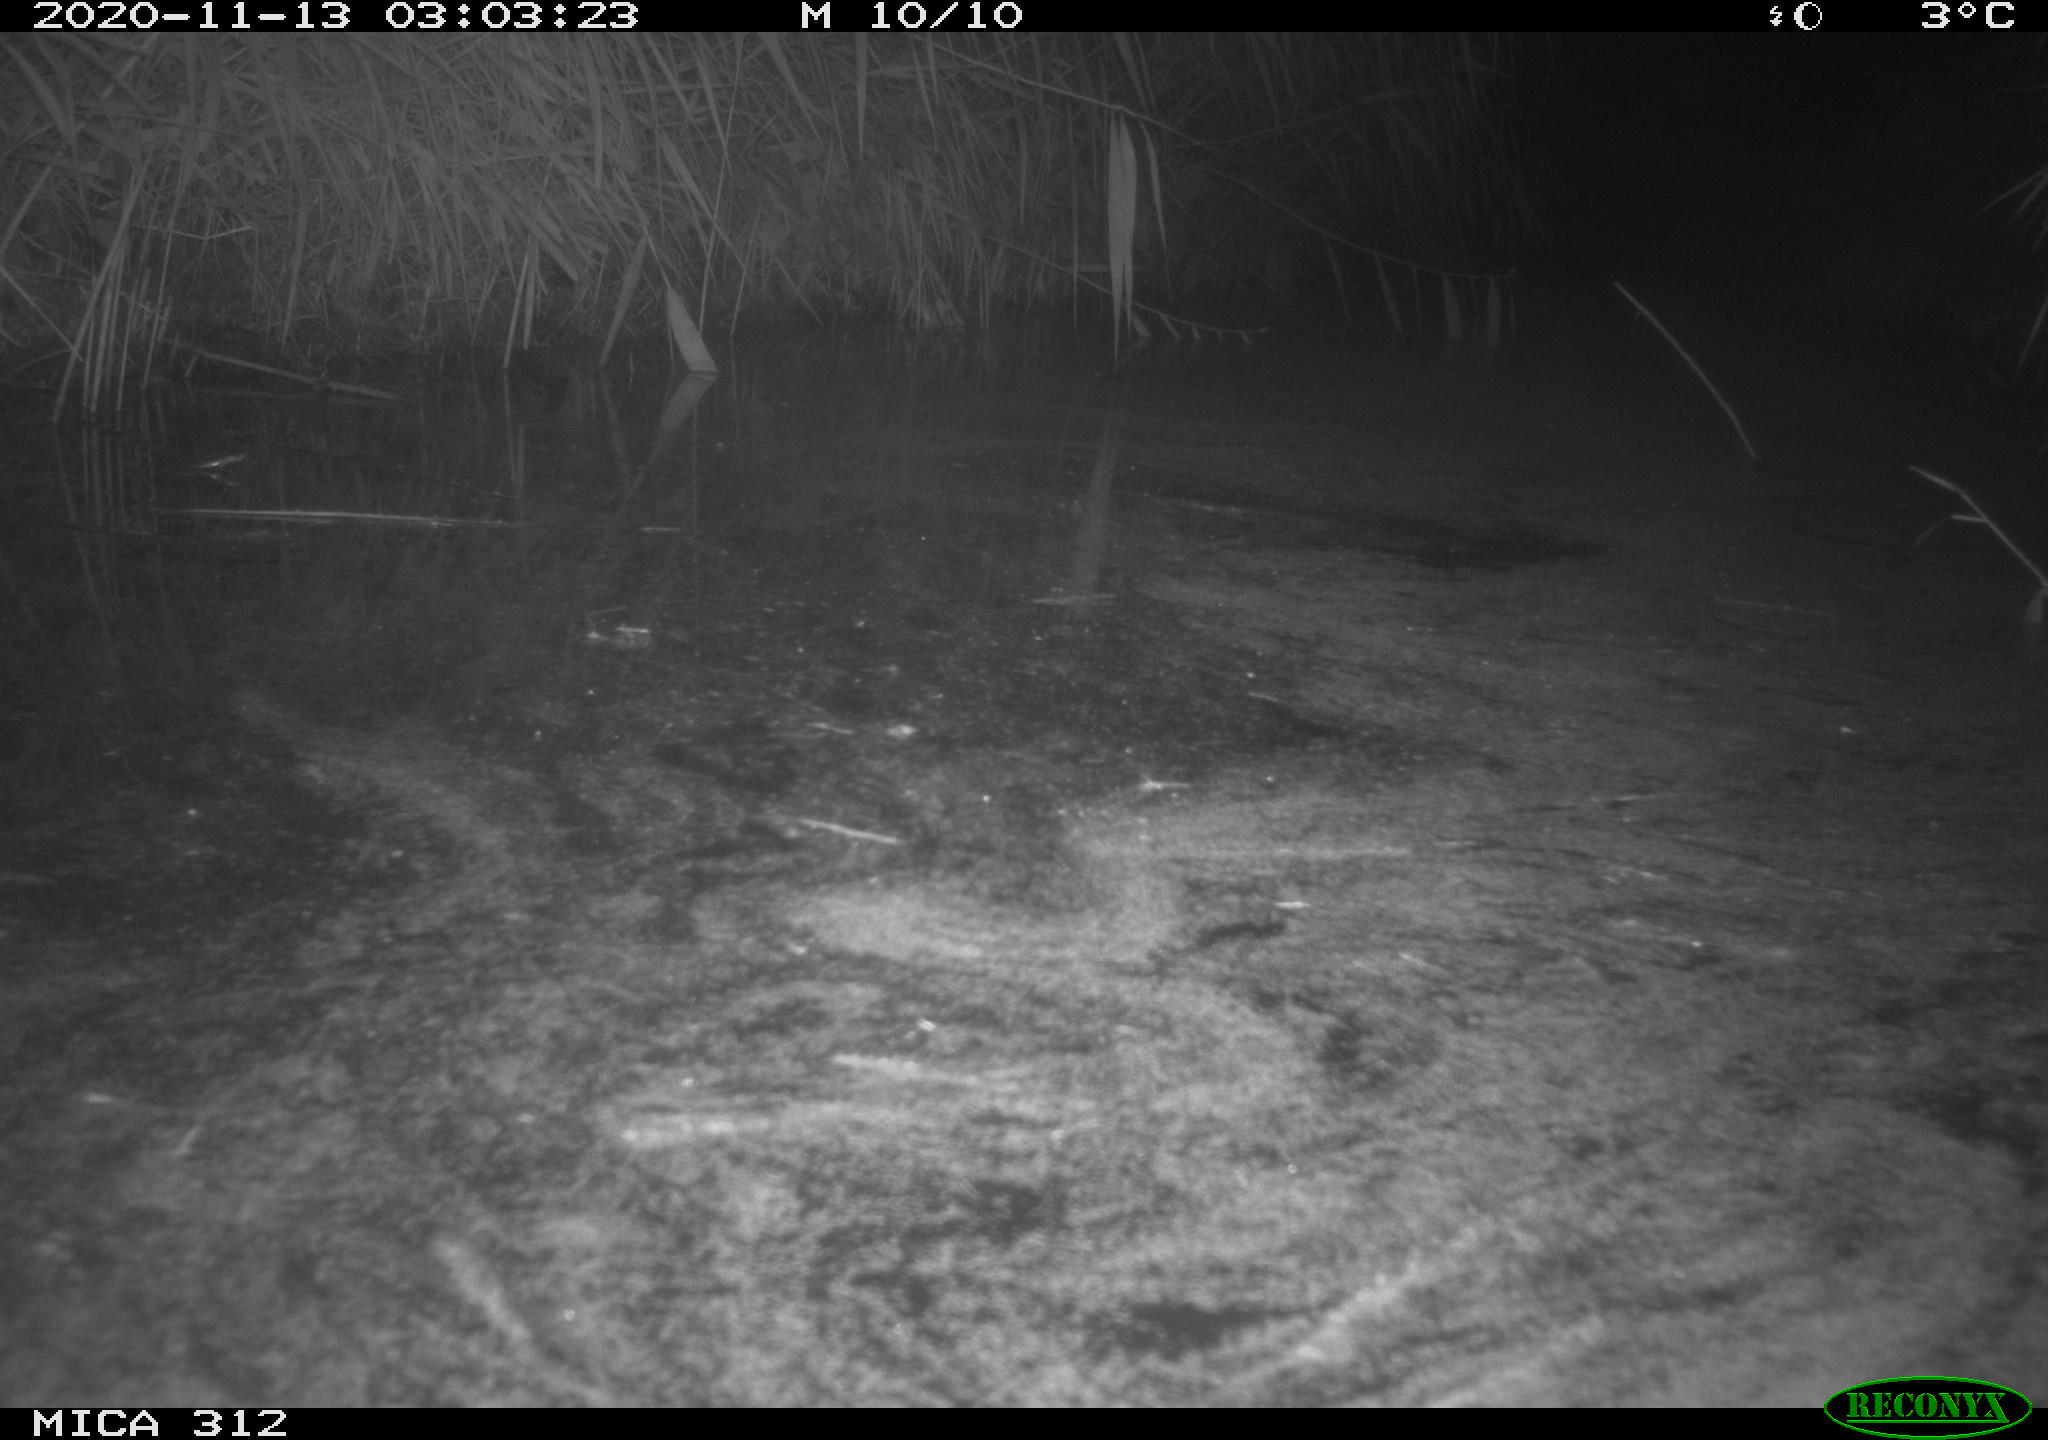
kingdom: Animalia
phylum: Chordata
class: Mammalia
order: Rodentia
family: Muridae
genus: Rattus
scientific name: Rattus norvegicus
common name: Brown rat
